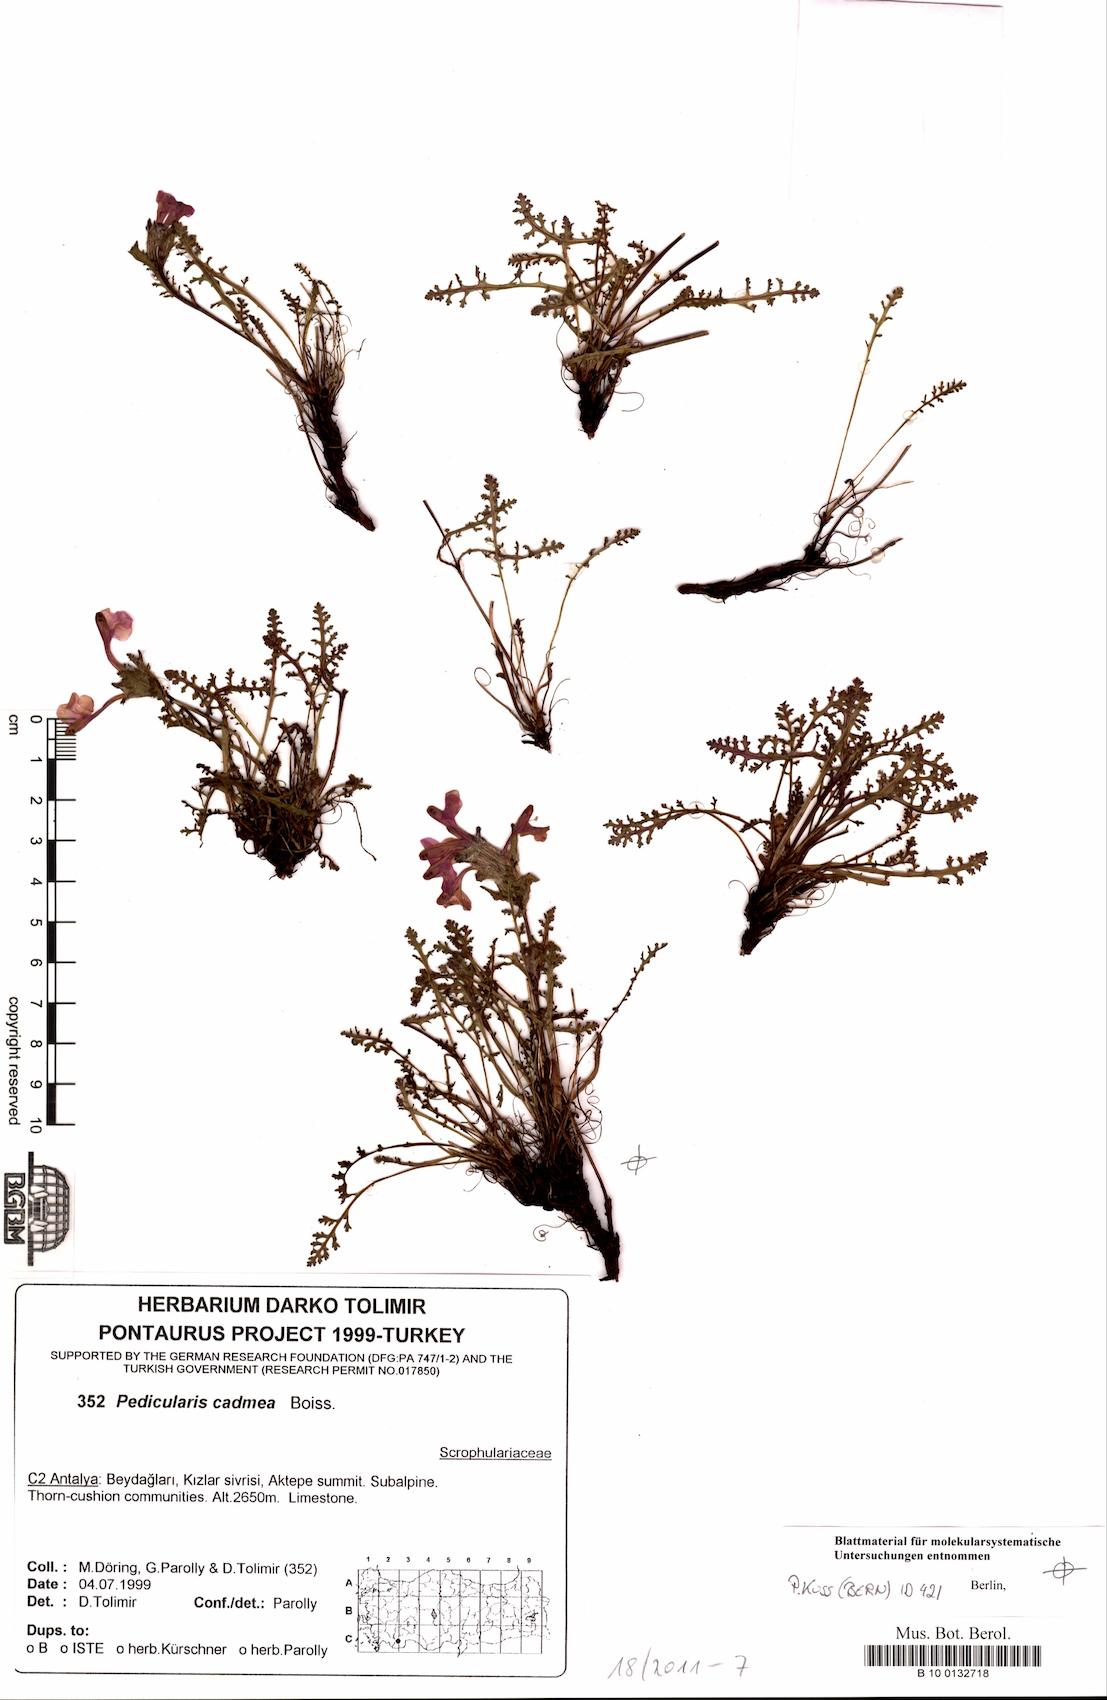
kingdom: Plantae
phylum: Tracheophyta
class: Magnoliopsida
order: Lamiales
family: Orobanchaceae
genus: Pedicularis
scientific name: Pedicularis cadmea
